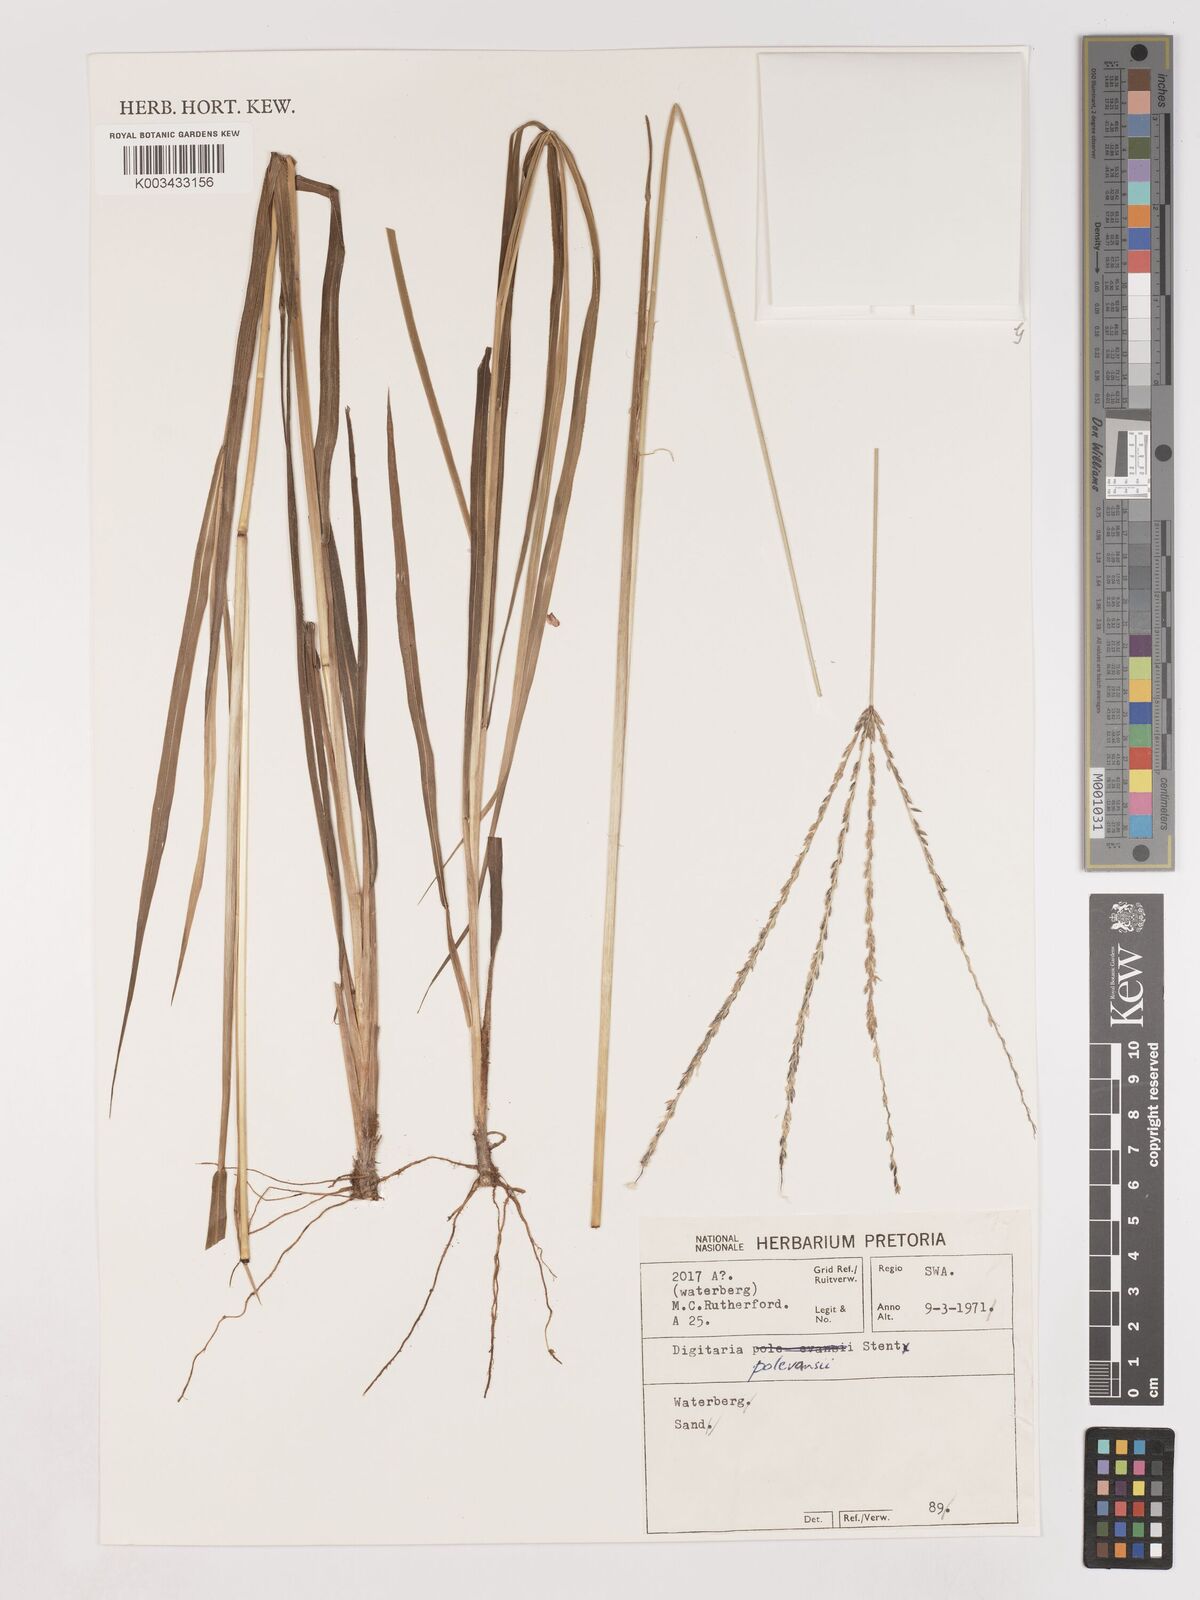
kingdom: Plantae
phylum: Tracheophyta
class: Liliopsida
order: Poales
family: Poaceae
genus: Digitaria
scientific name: Digitaria milanjiana
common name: Madagascar crabgrass
